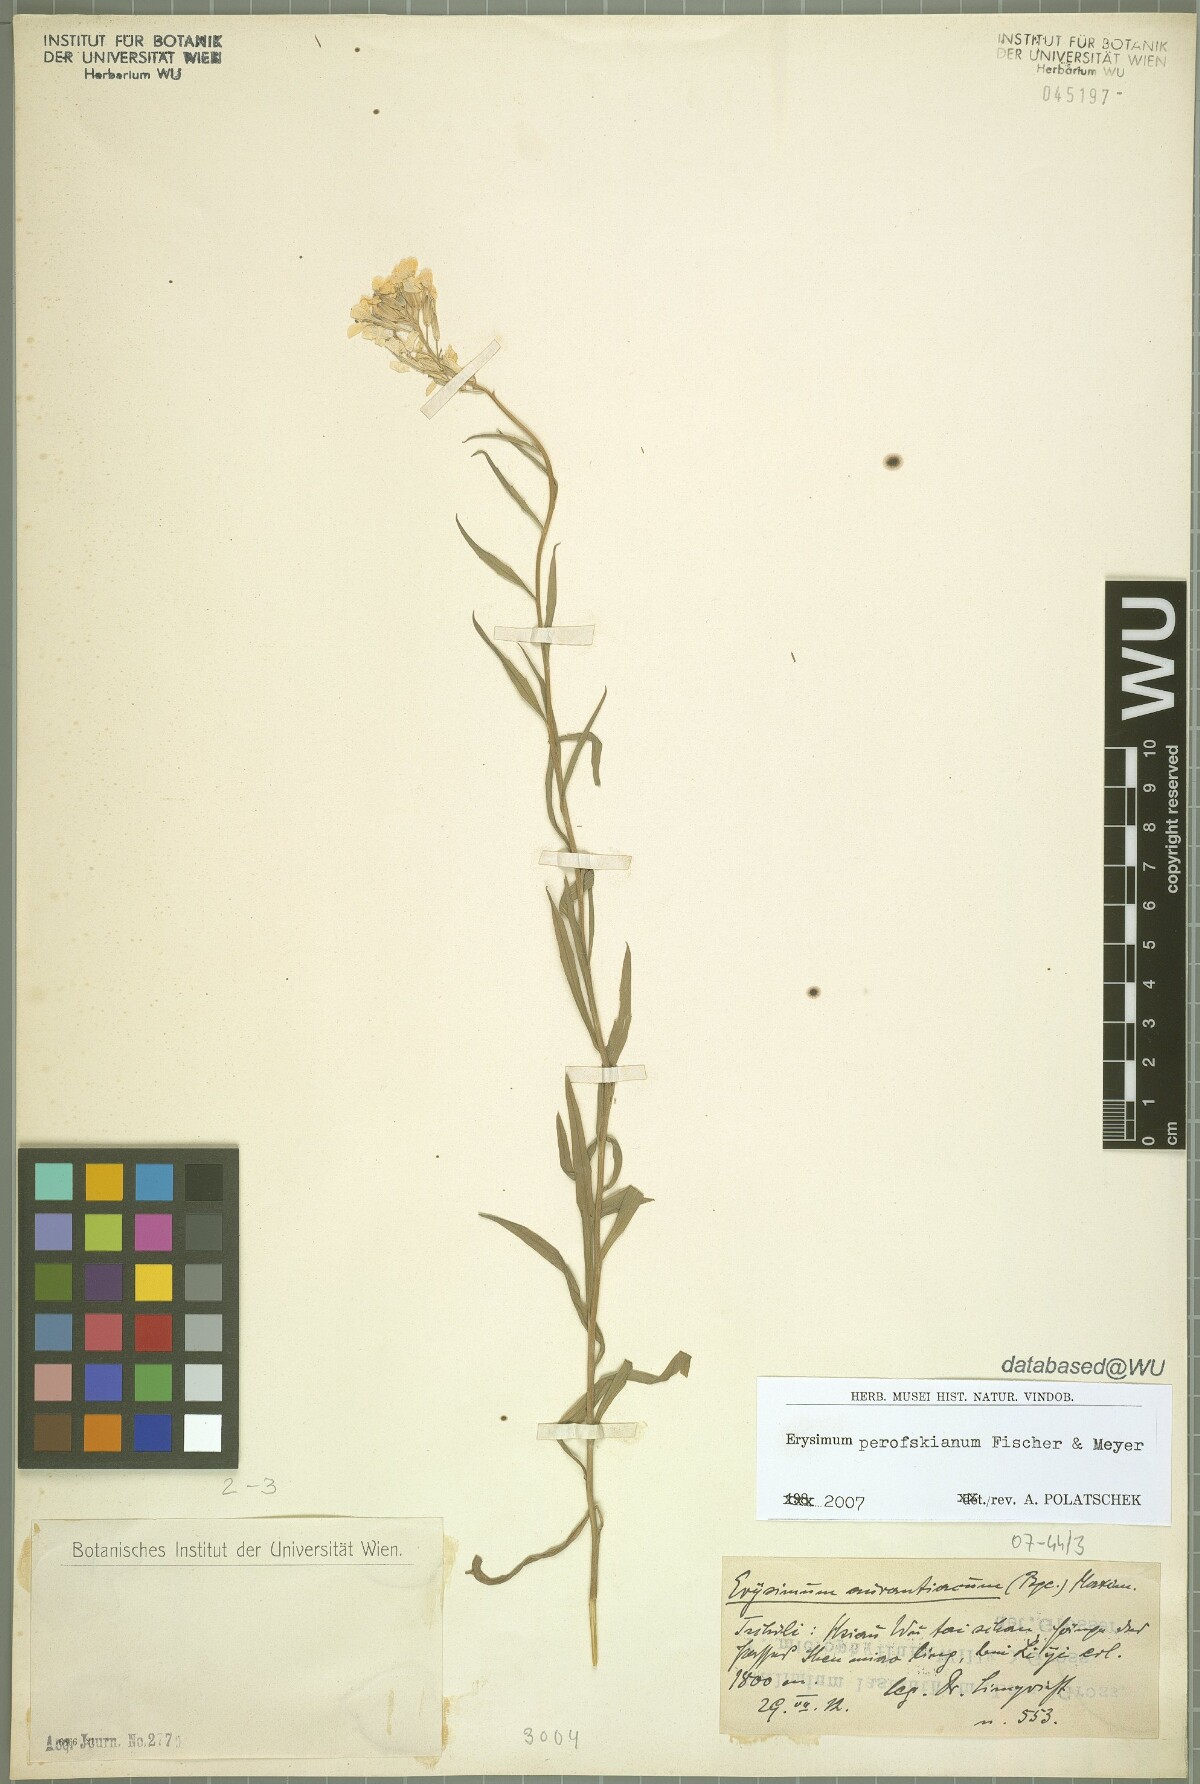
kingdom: Plantae
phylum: Tracheophyta
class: Magnoliopsida
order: Brassicales
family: Brassicaceae
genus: Erysimum
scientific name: Erysimum perofskianum
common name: Afghan erysimum
